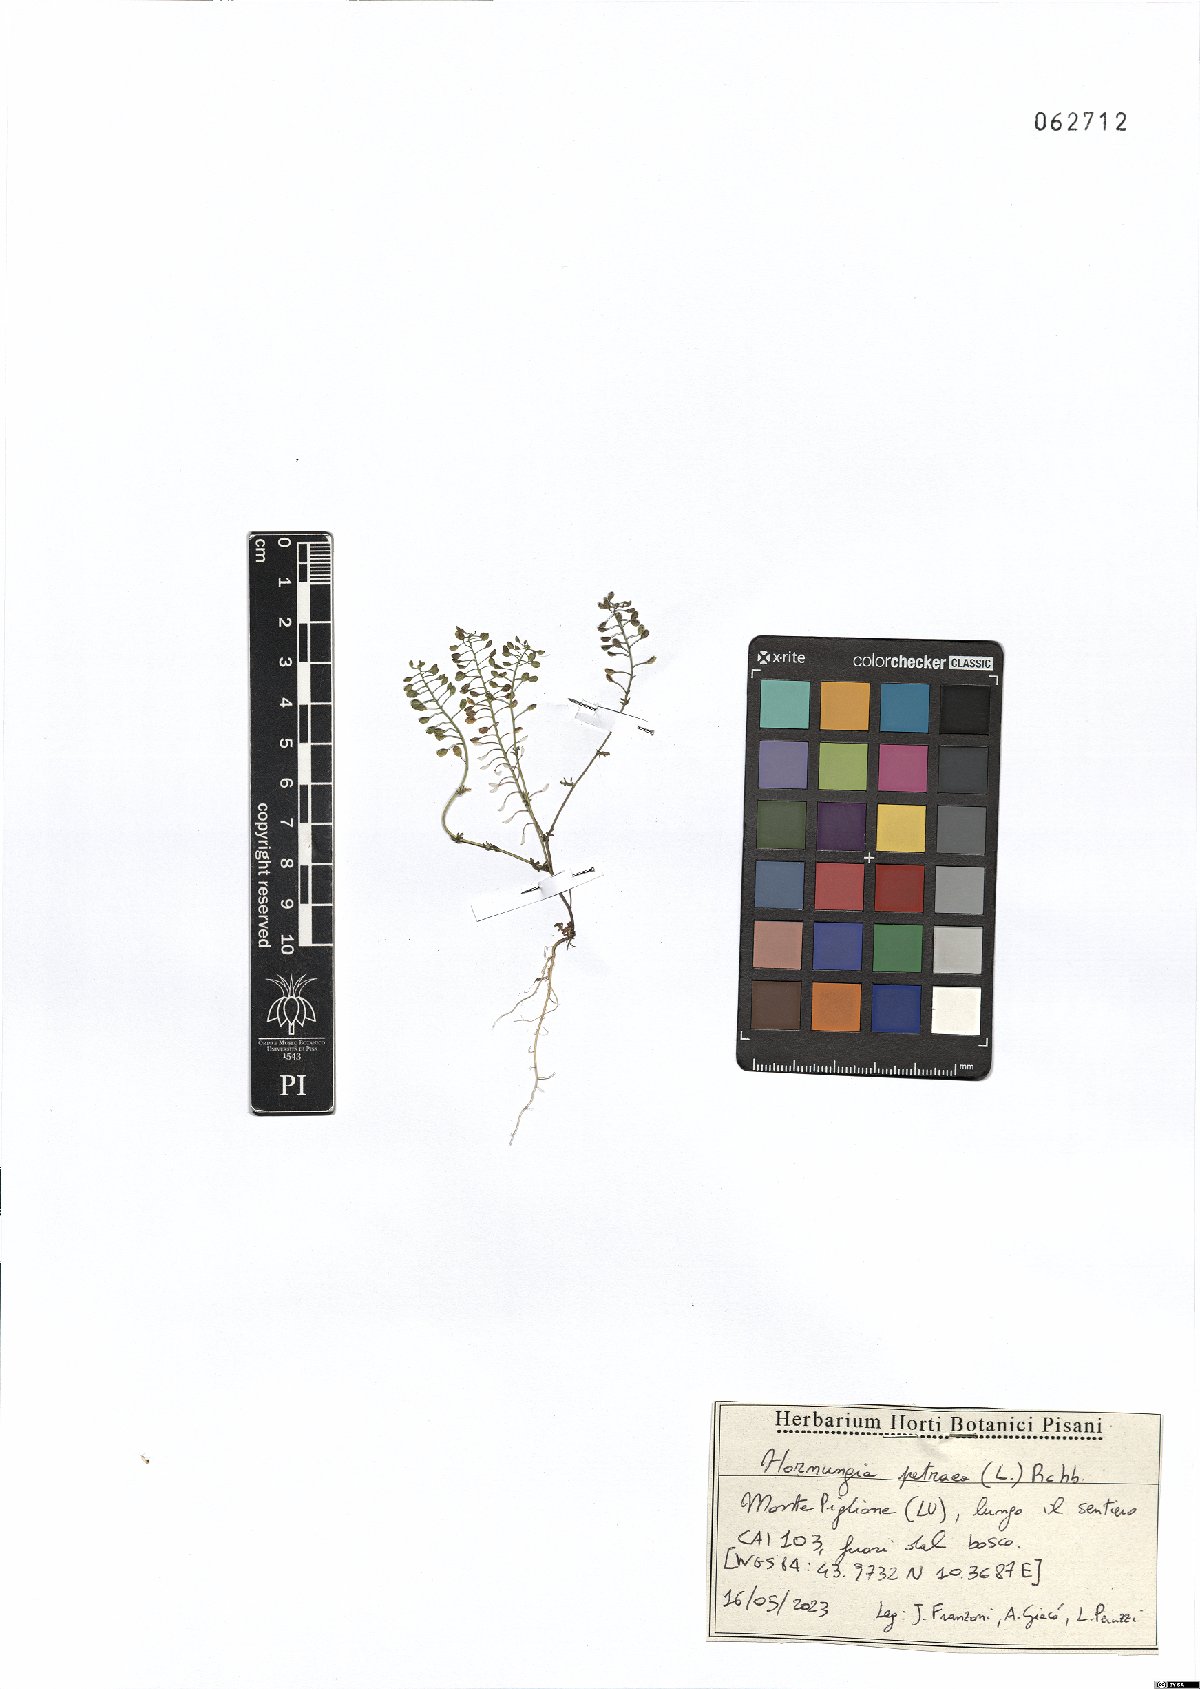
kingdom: Plantae
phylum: Tracheophyta
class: Magnoliopsida
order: Brassicales
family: Brassicaceae
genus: Hornungia
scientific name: Hornungia petraea
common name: Hutchinsia
